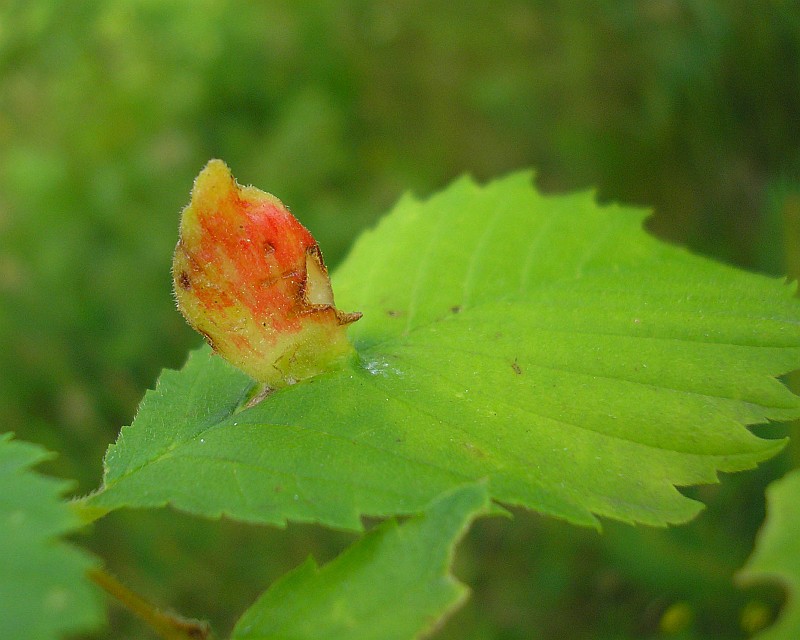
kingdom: Animalia
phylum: Arthropoda
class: Insecta
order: Hemiptera
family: Aphididae
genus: Colopha
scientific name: Colopha compressa
